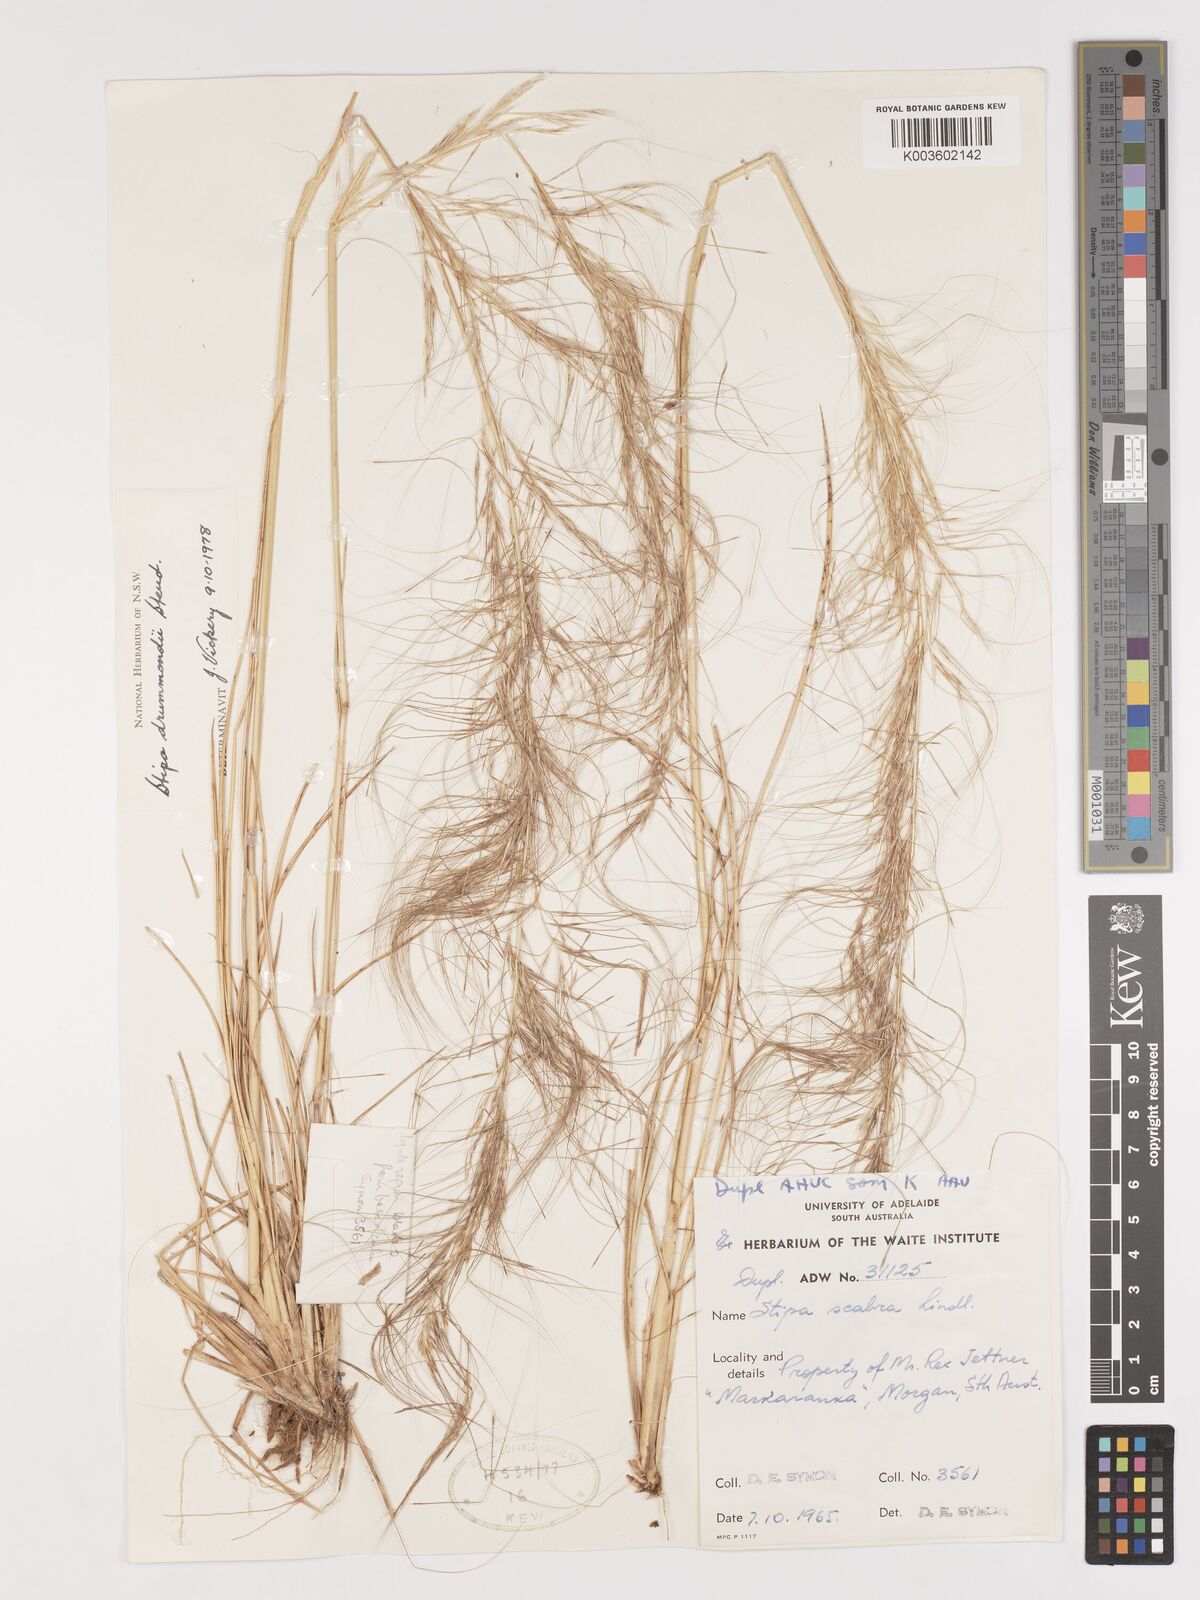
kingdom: Plantae
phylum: Tracheophyta
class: Liliopsida
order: Poales
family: Poaceae
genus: Austrostipa
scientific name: Austrostipa drummondii
